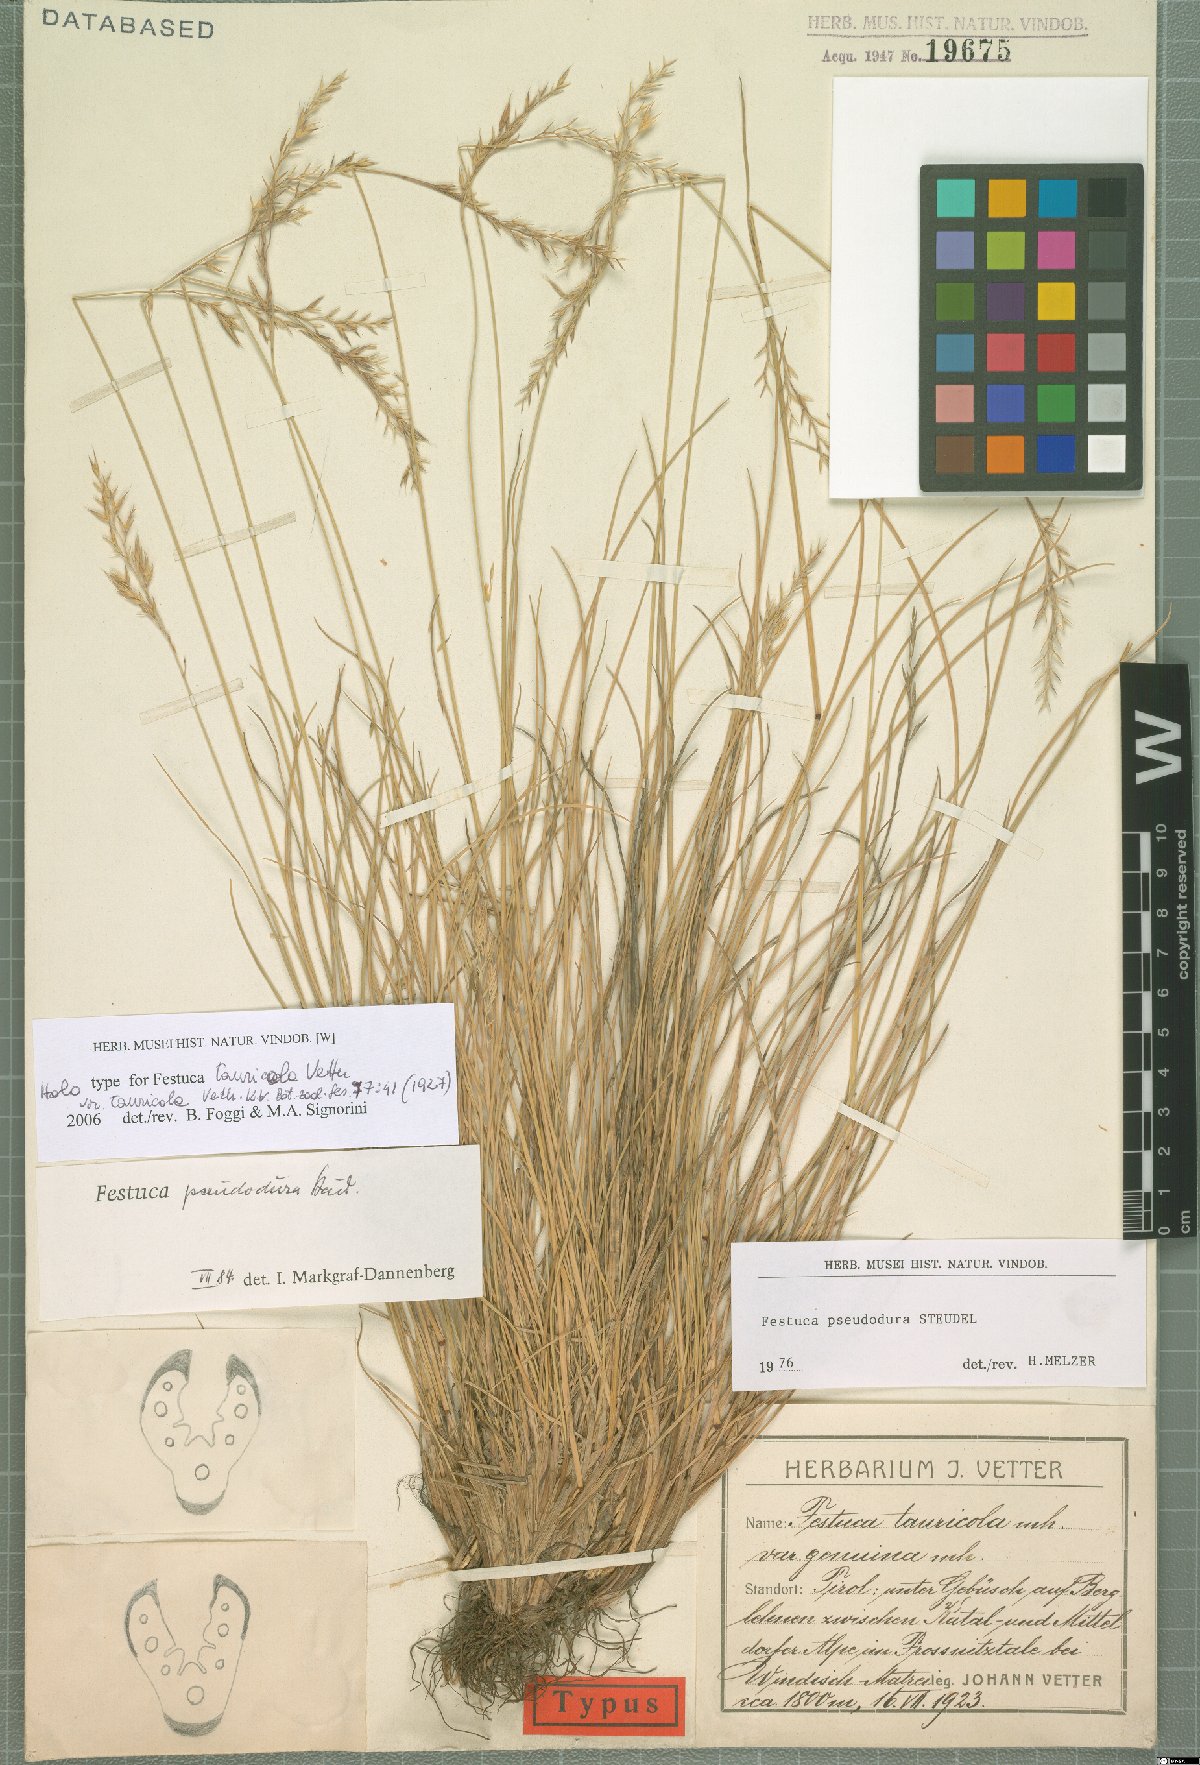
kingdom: Plantae
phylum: Tracheophyta
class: Liliopsida
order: Poales
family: Poaceae
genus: Festuca
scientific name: Festuca pseudodura
